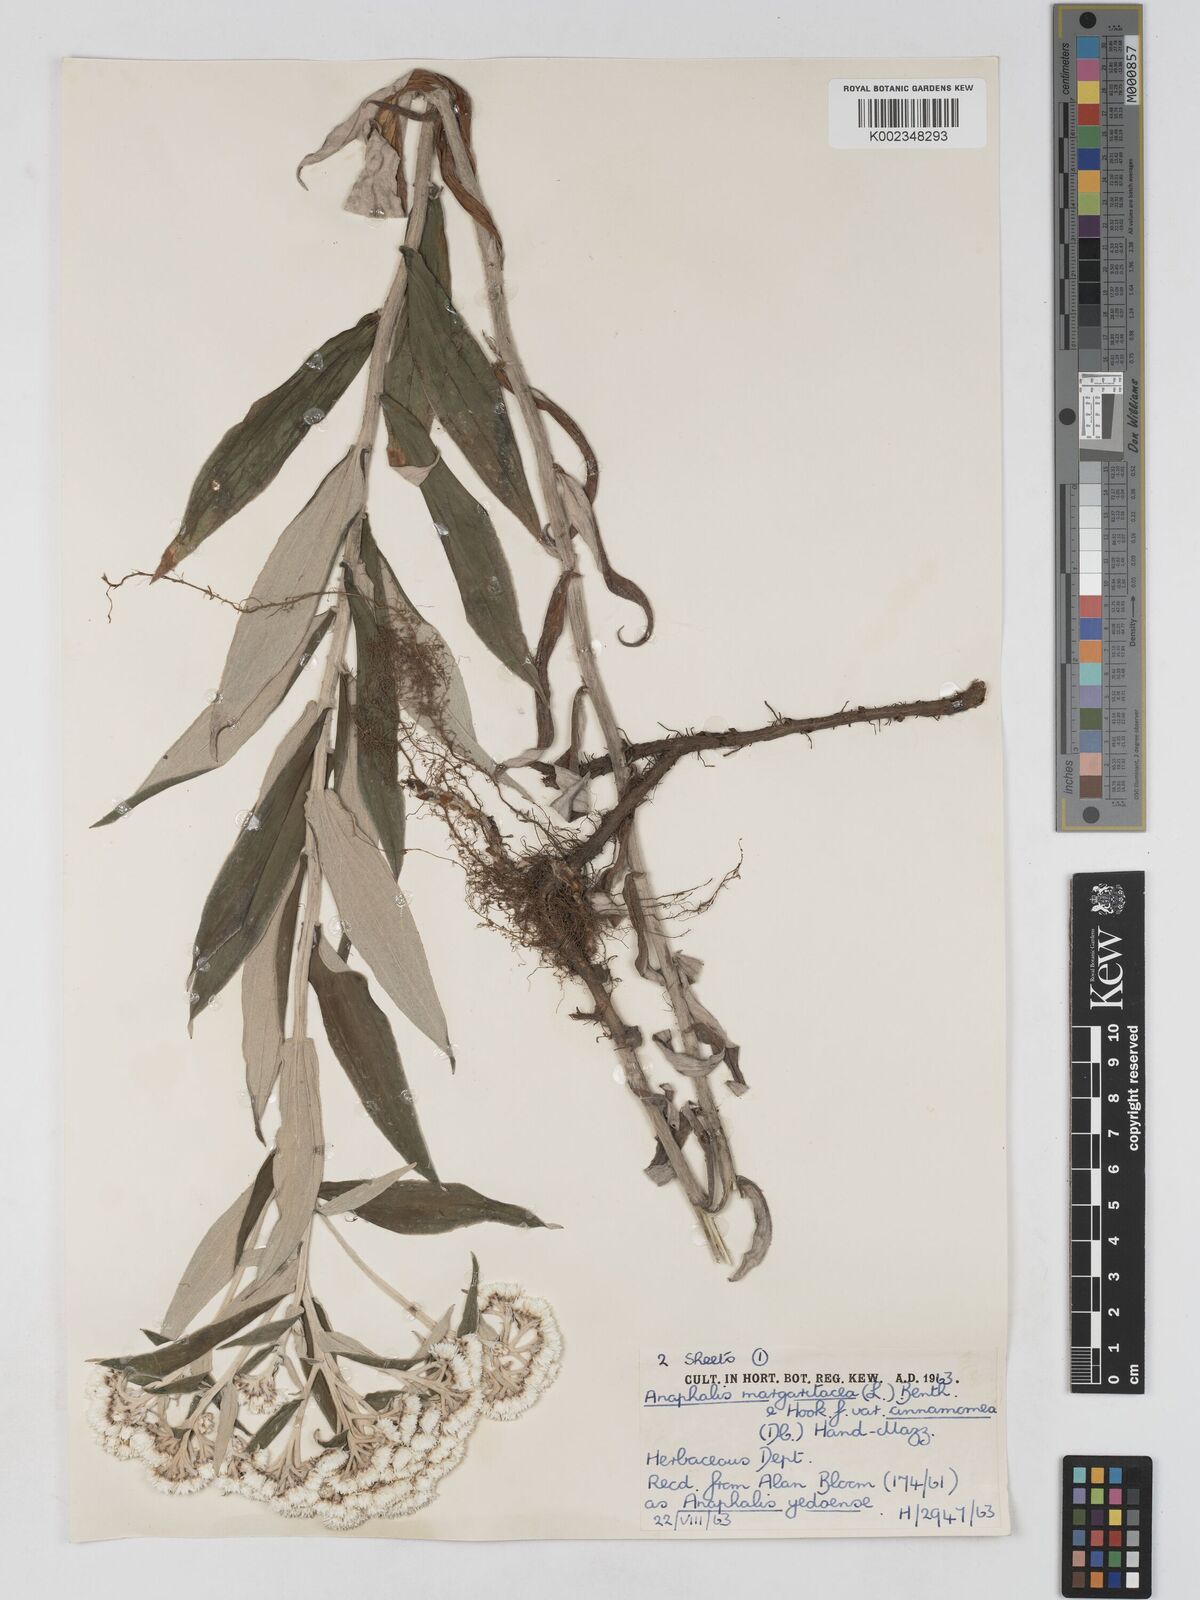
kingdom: Plantae
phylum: Tracheophyta
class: Magnoliopsida
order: Asterales
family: Asteraceae
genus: Anaphalis
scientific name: Anaphalis margaritacea
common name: Pearly everlasting
